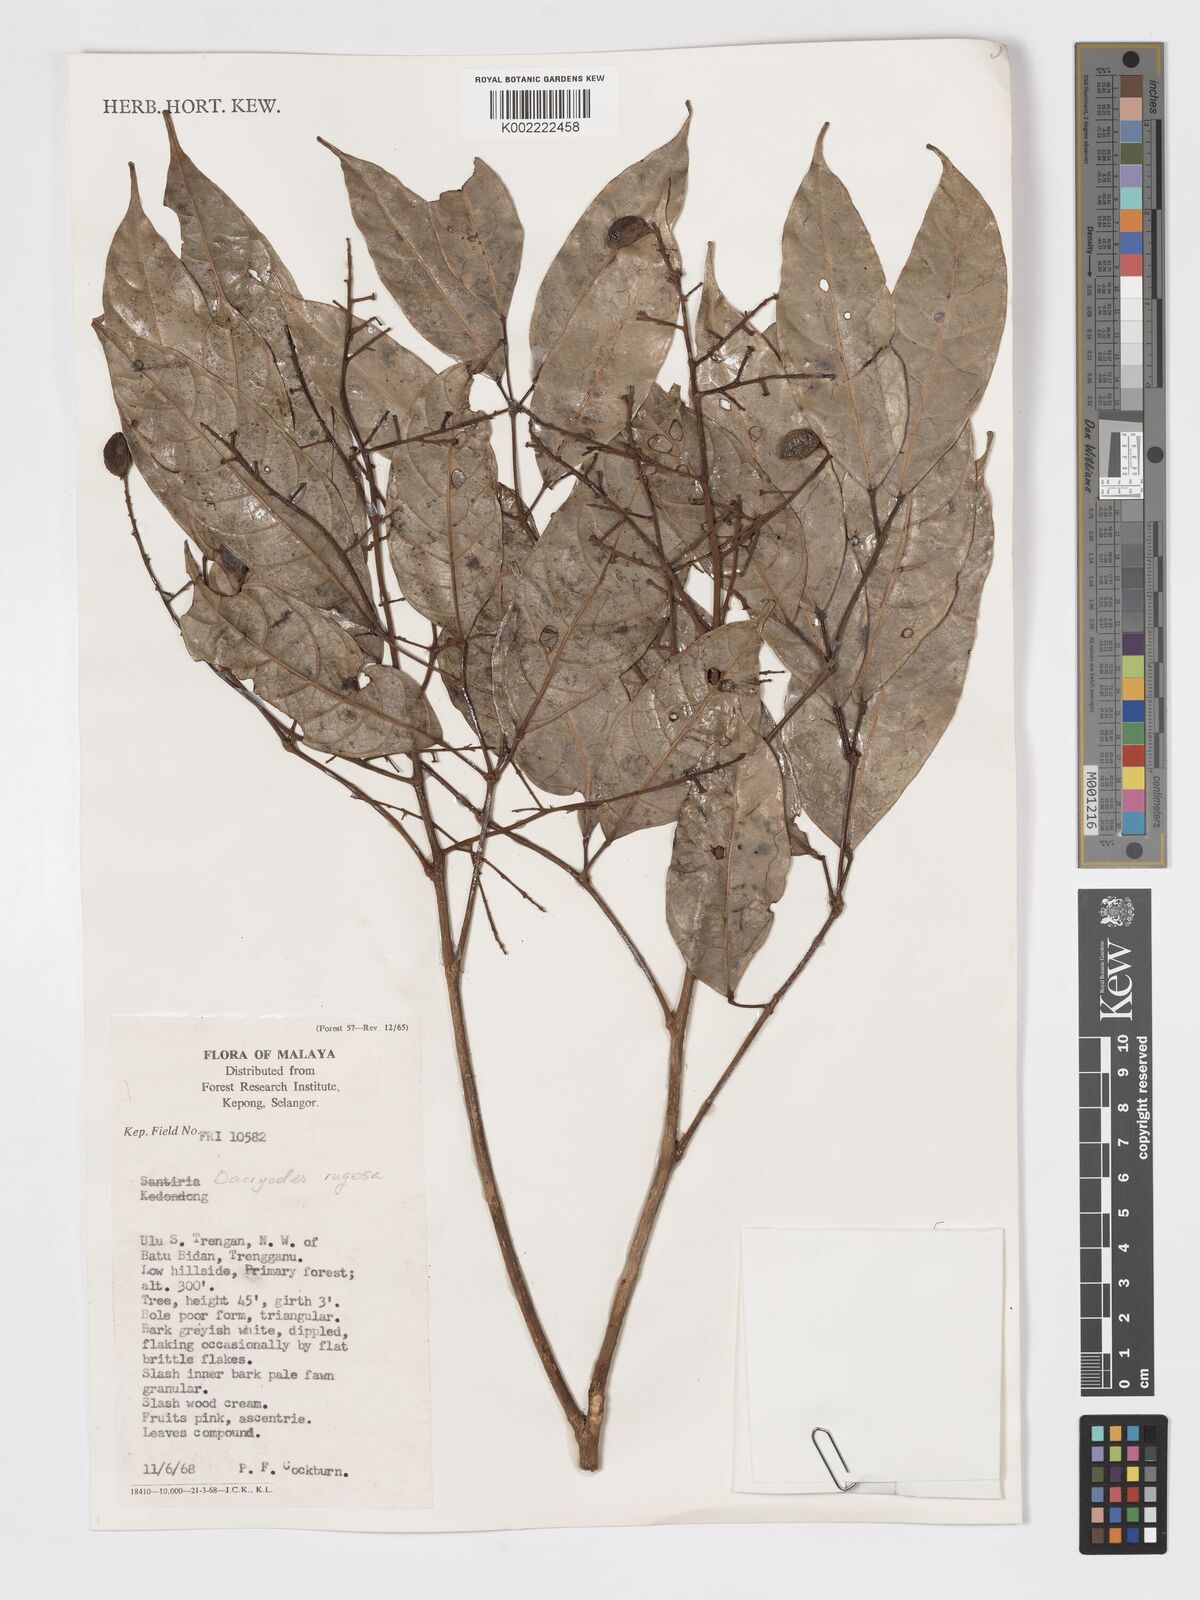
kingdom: Plantae
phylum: Tracheophyta
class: Magnoliopsida
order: Sapindales
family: Burseraceae
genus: Dacryodes
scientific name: Dacryodes rugosa
